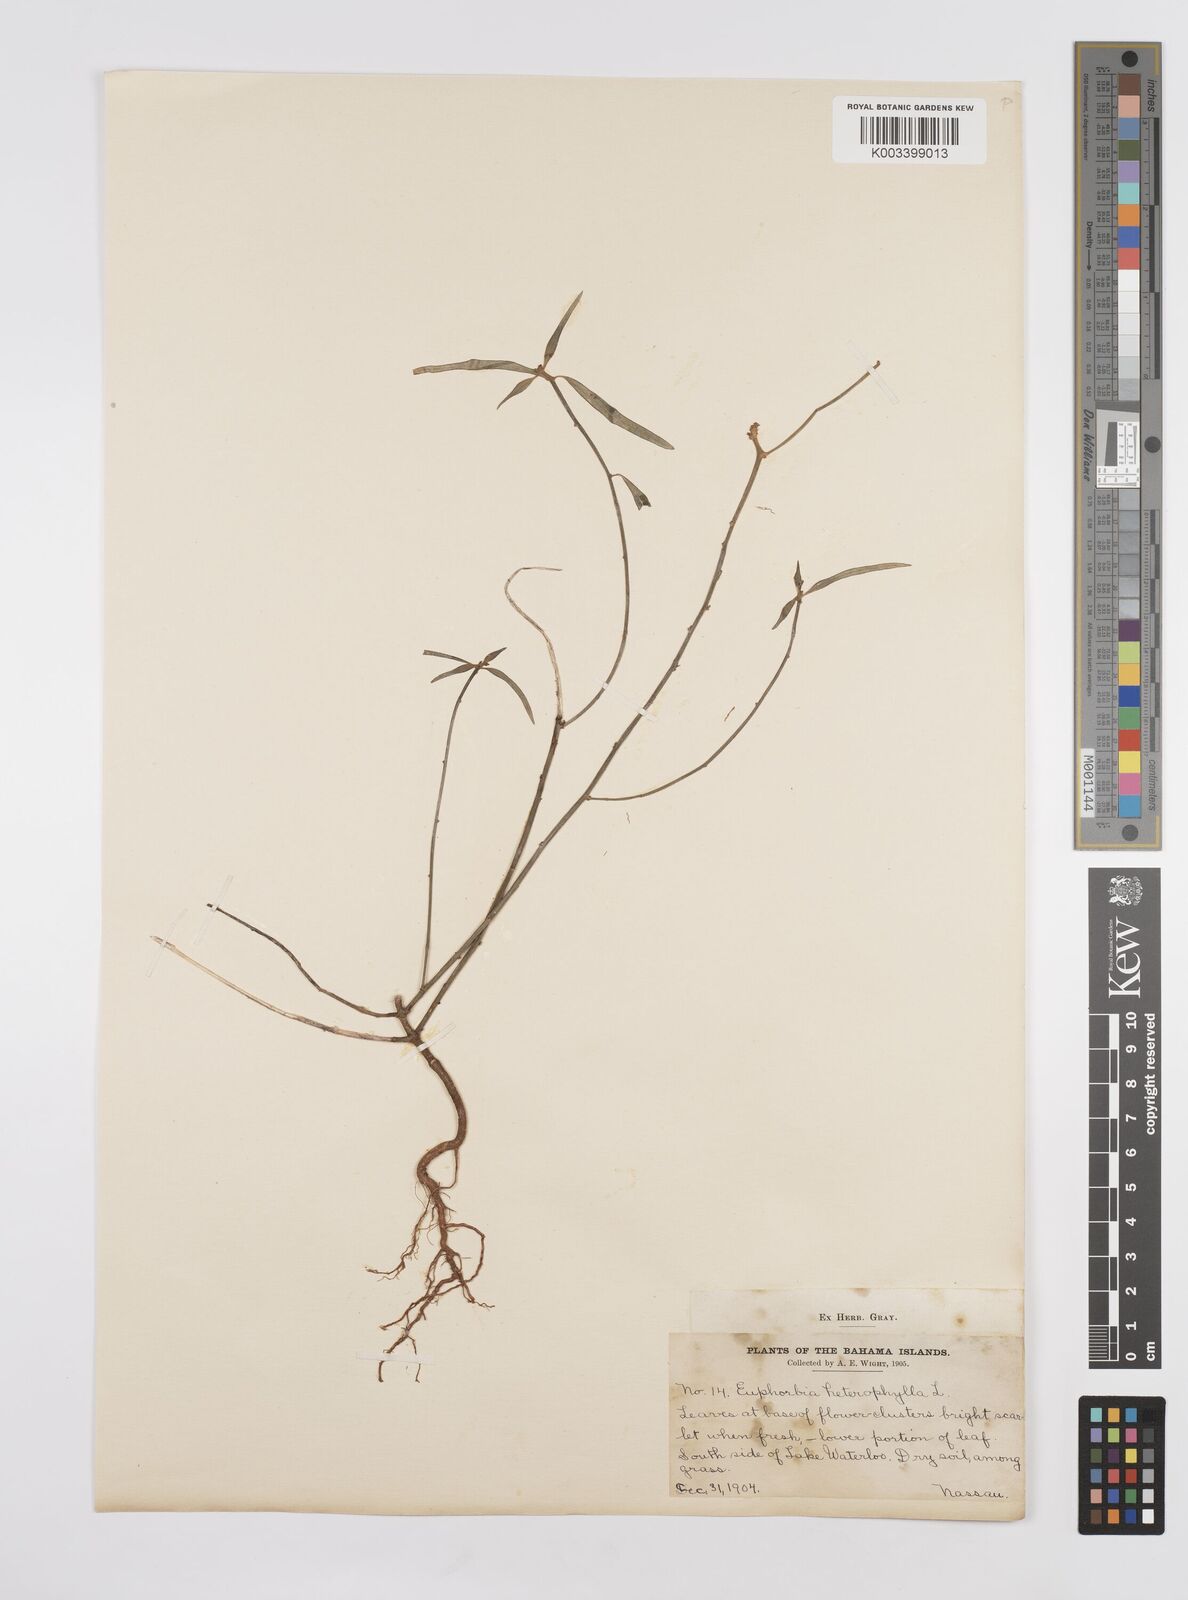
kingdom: Plantae
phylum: Tracheophyta
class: Magnoliopsida
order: Malpighiales
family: Euphorbiaceae
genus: Euphorbia
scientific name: Euphorbia heterophylla
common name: Mexican fireplant
